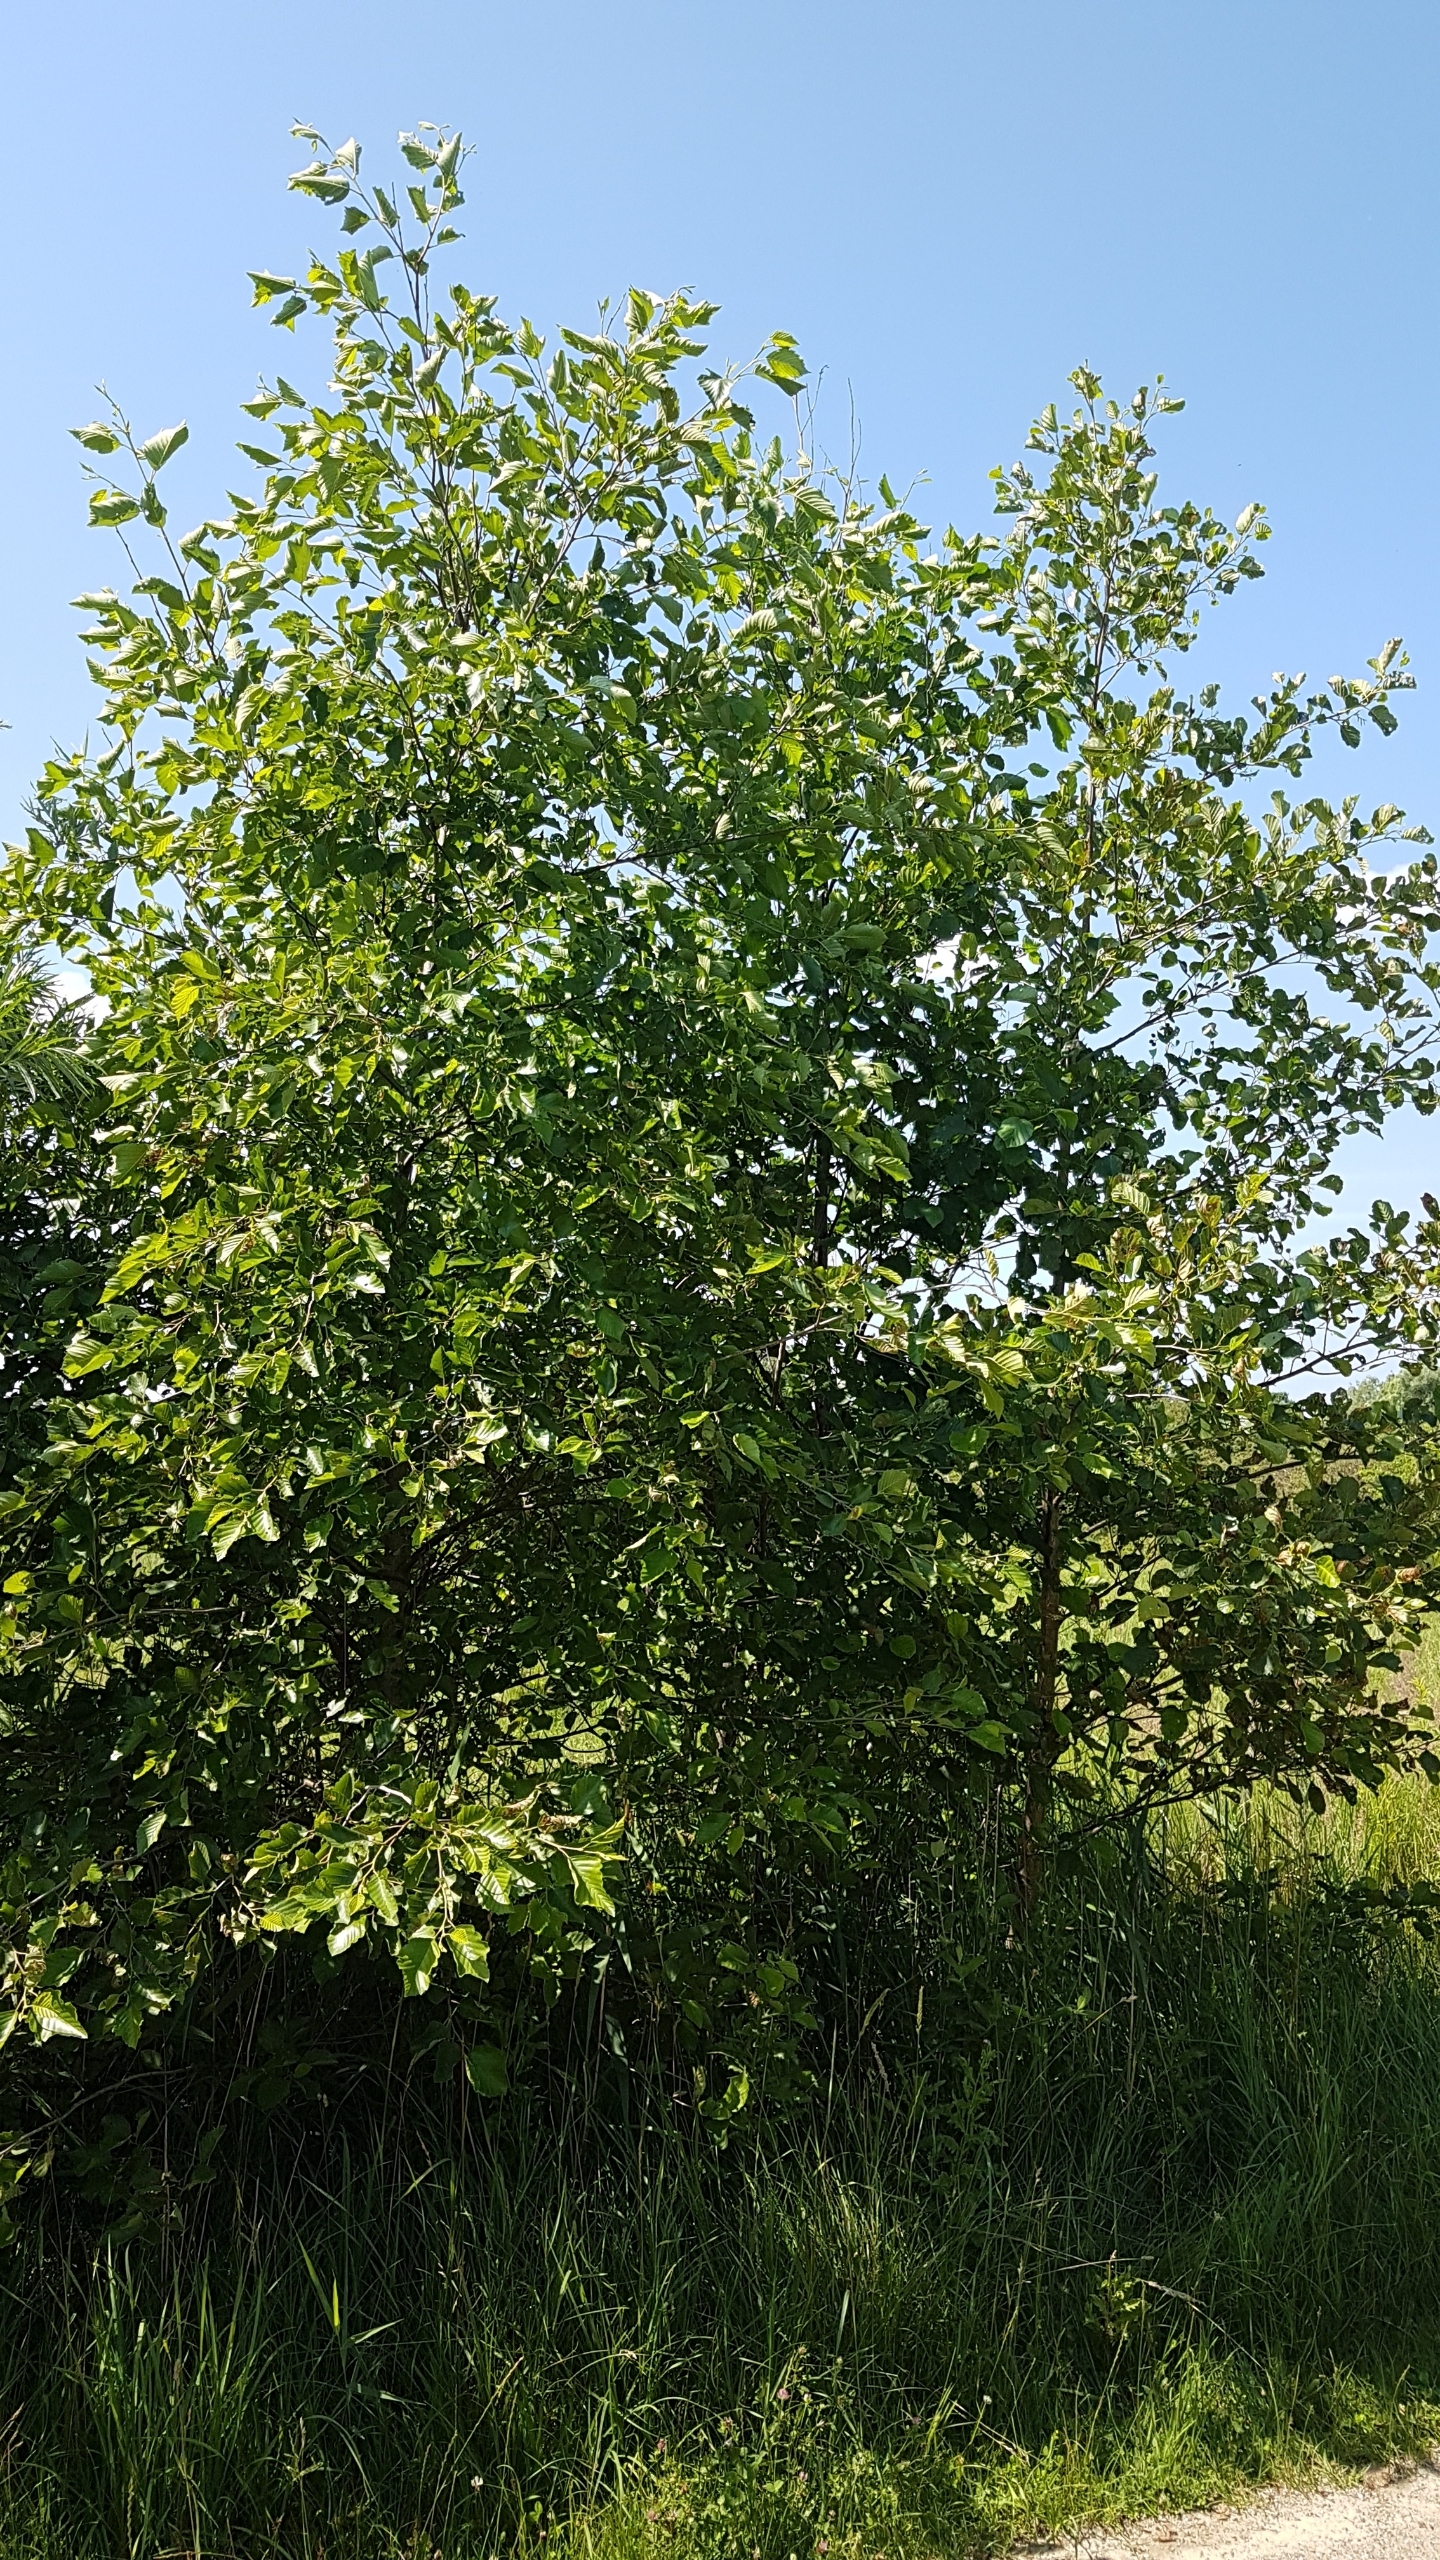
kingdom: Plantae
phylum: Tracheophyta
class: Magnoliopsida
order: Fagales
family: Betulaceae
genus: Alnus
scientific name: Alnus glutinosa
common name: Rød-el
